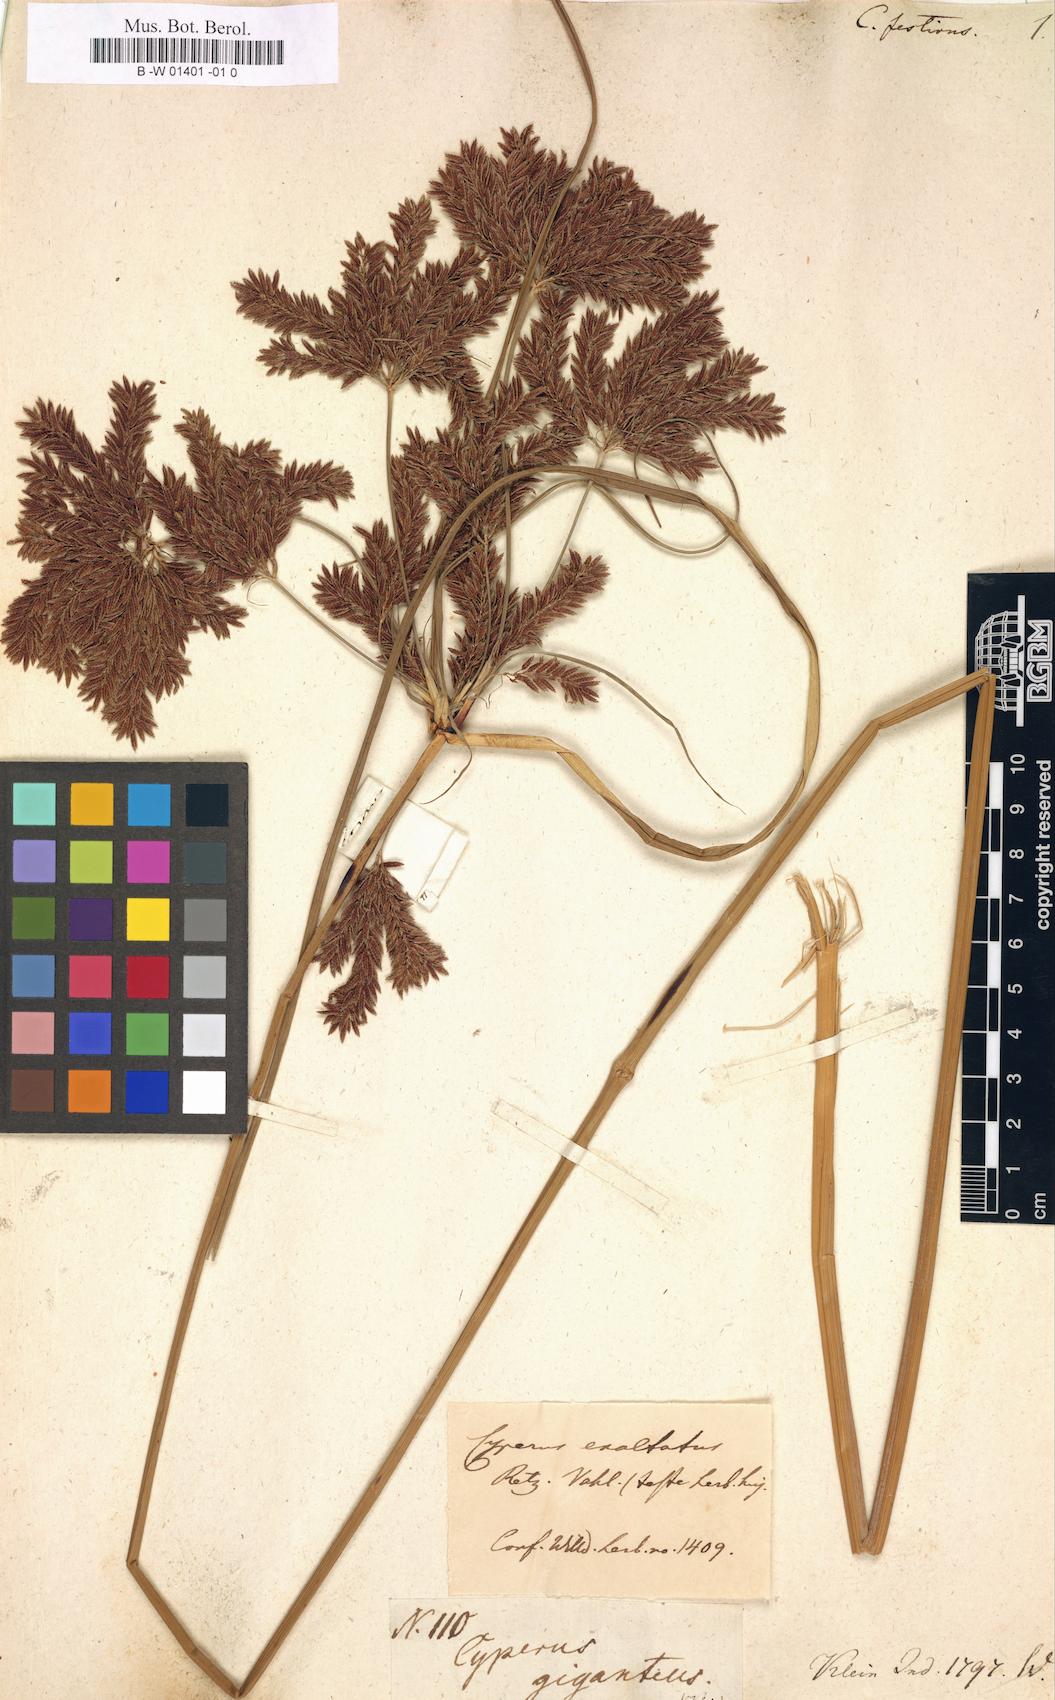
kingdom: Plantae
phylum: Tracheophyta
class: Liliopsida
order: Poales
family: Cyperaceae
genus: Cyperus
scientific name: Cyperus exaltatus
